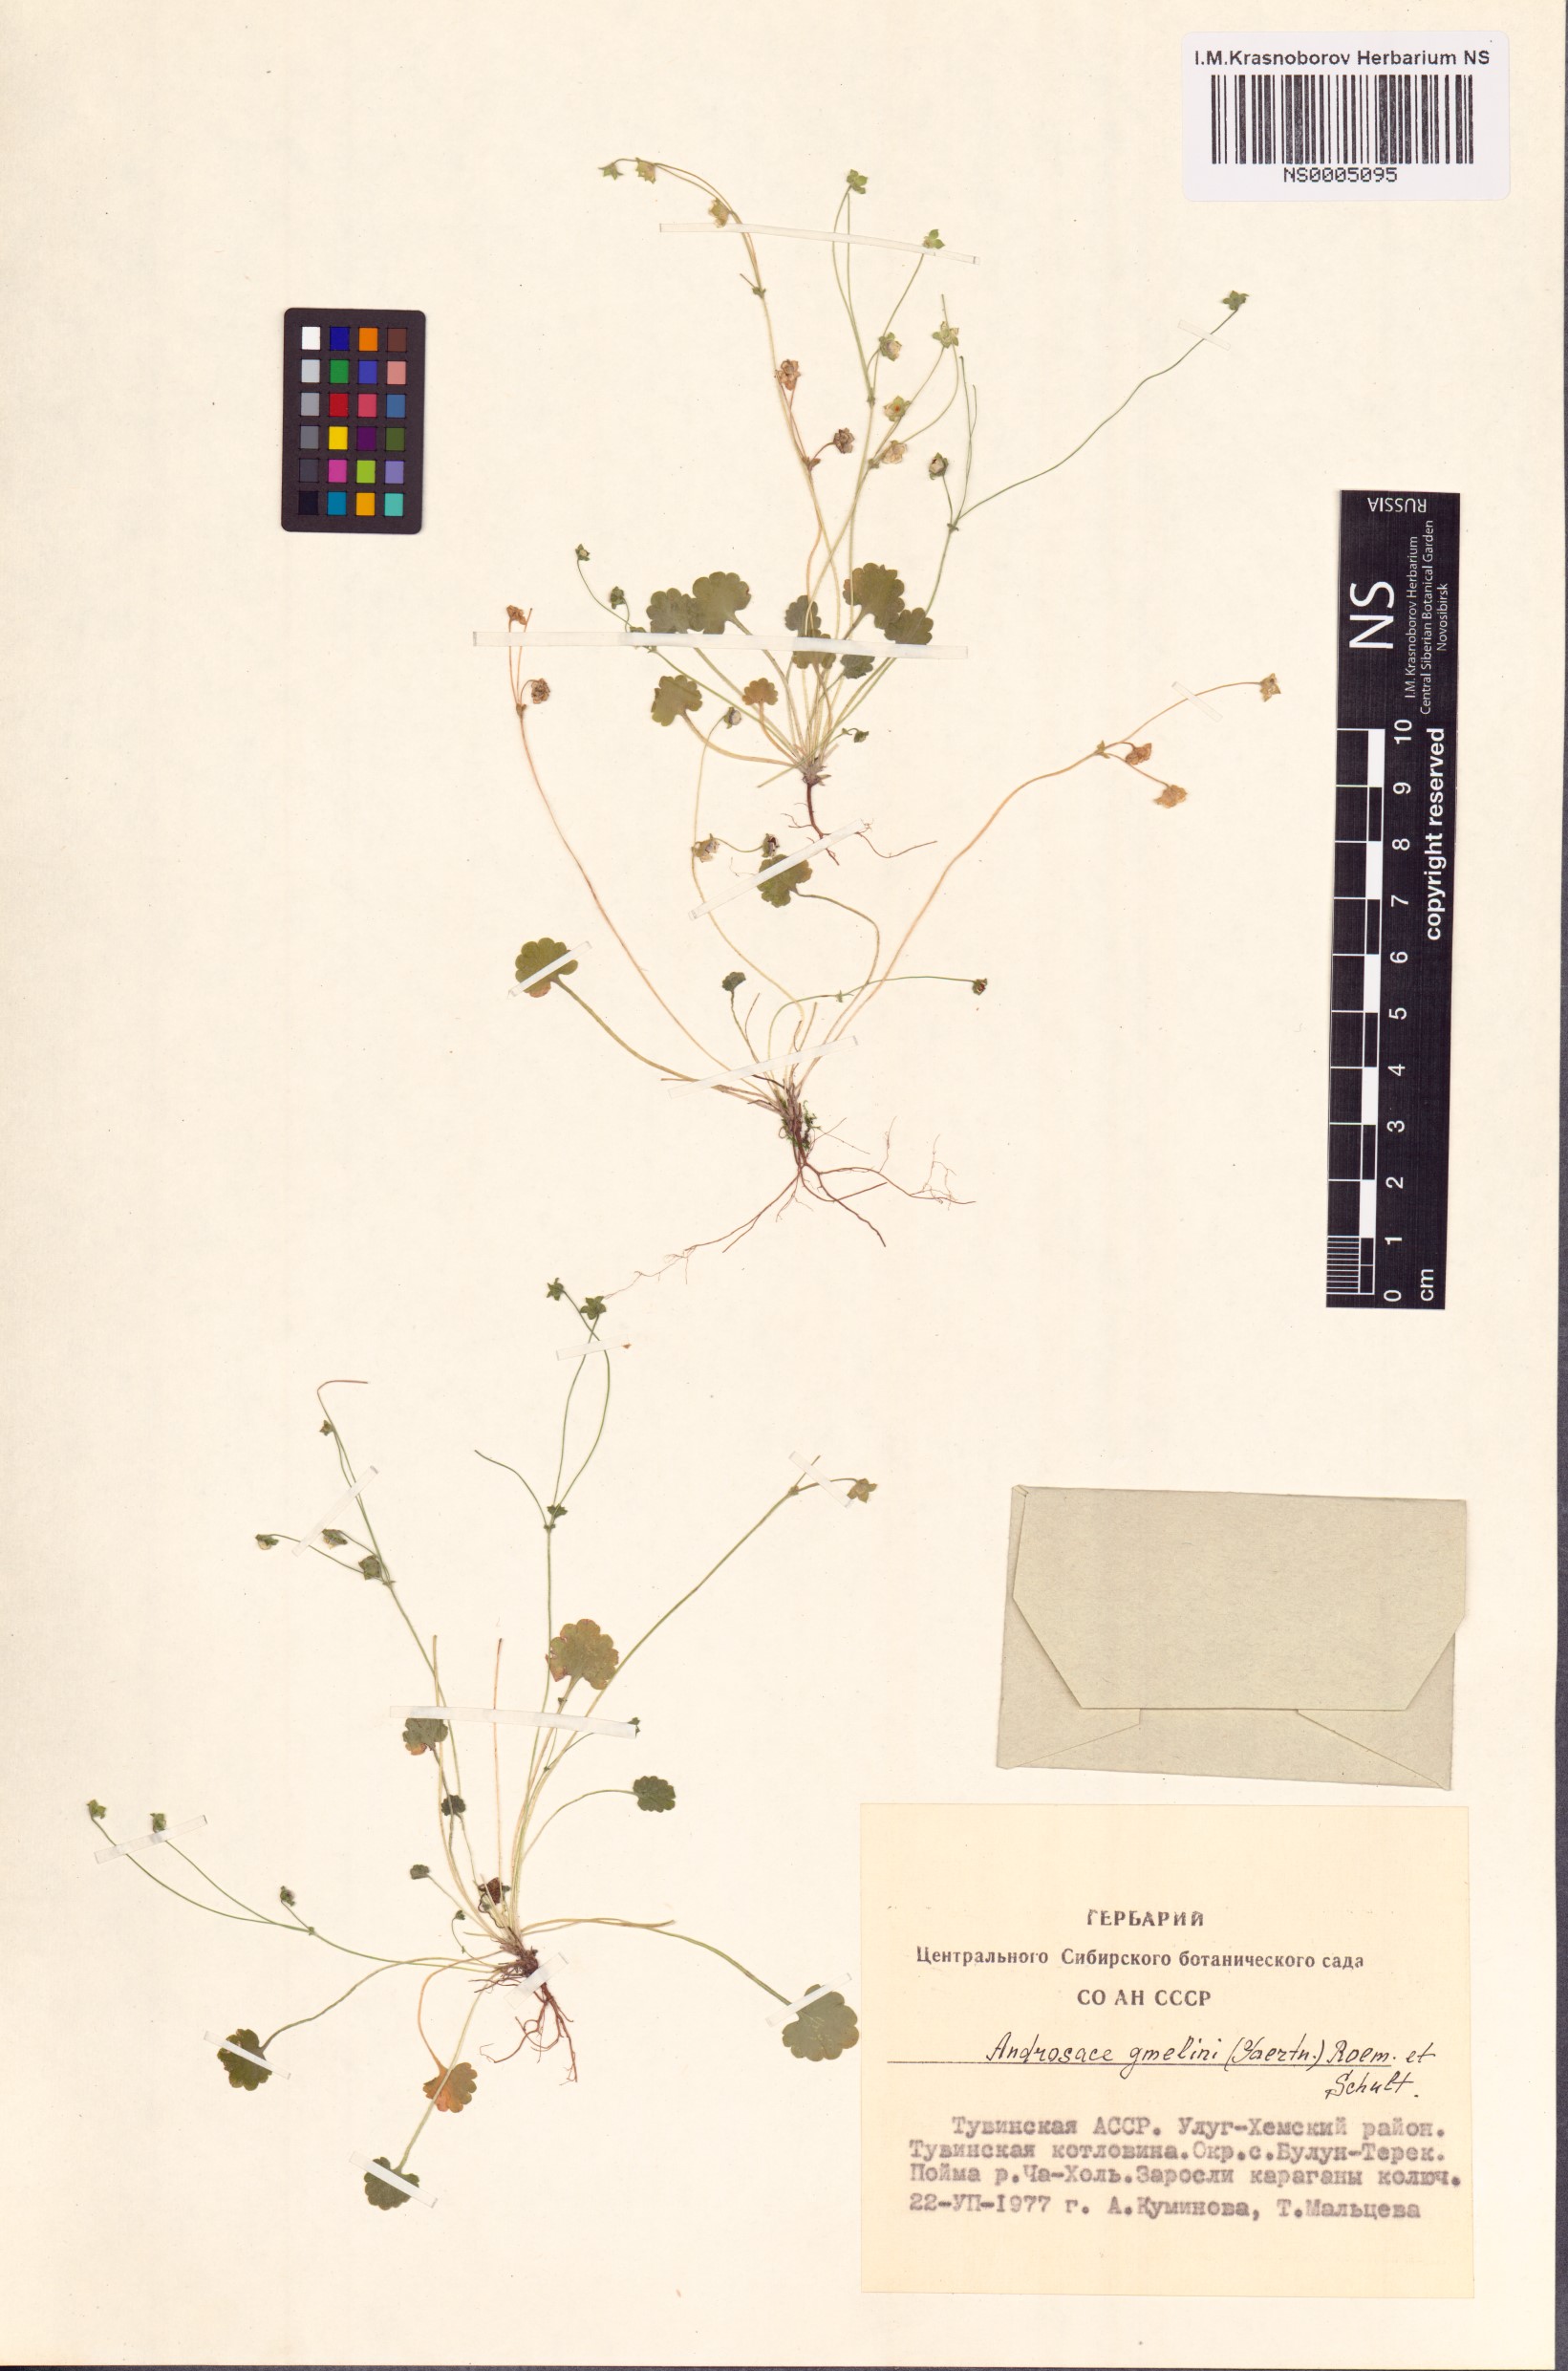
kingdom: Plantae
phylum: Tracheophyta
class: Magnoliopsida
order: Ericales
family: Primulaceae
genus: Androsace
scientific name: Androsace gmelinii
